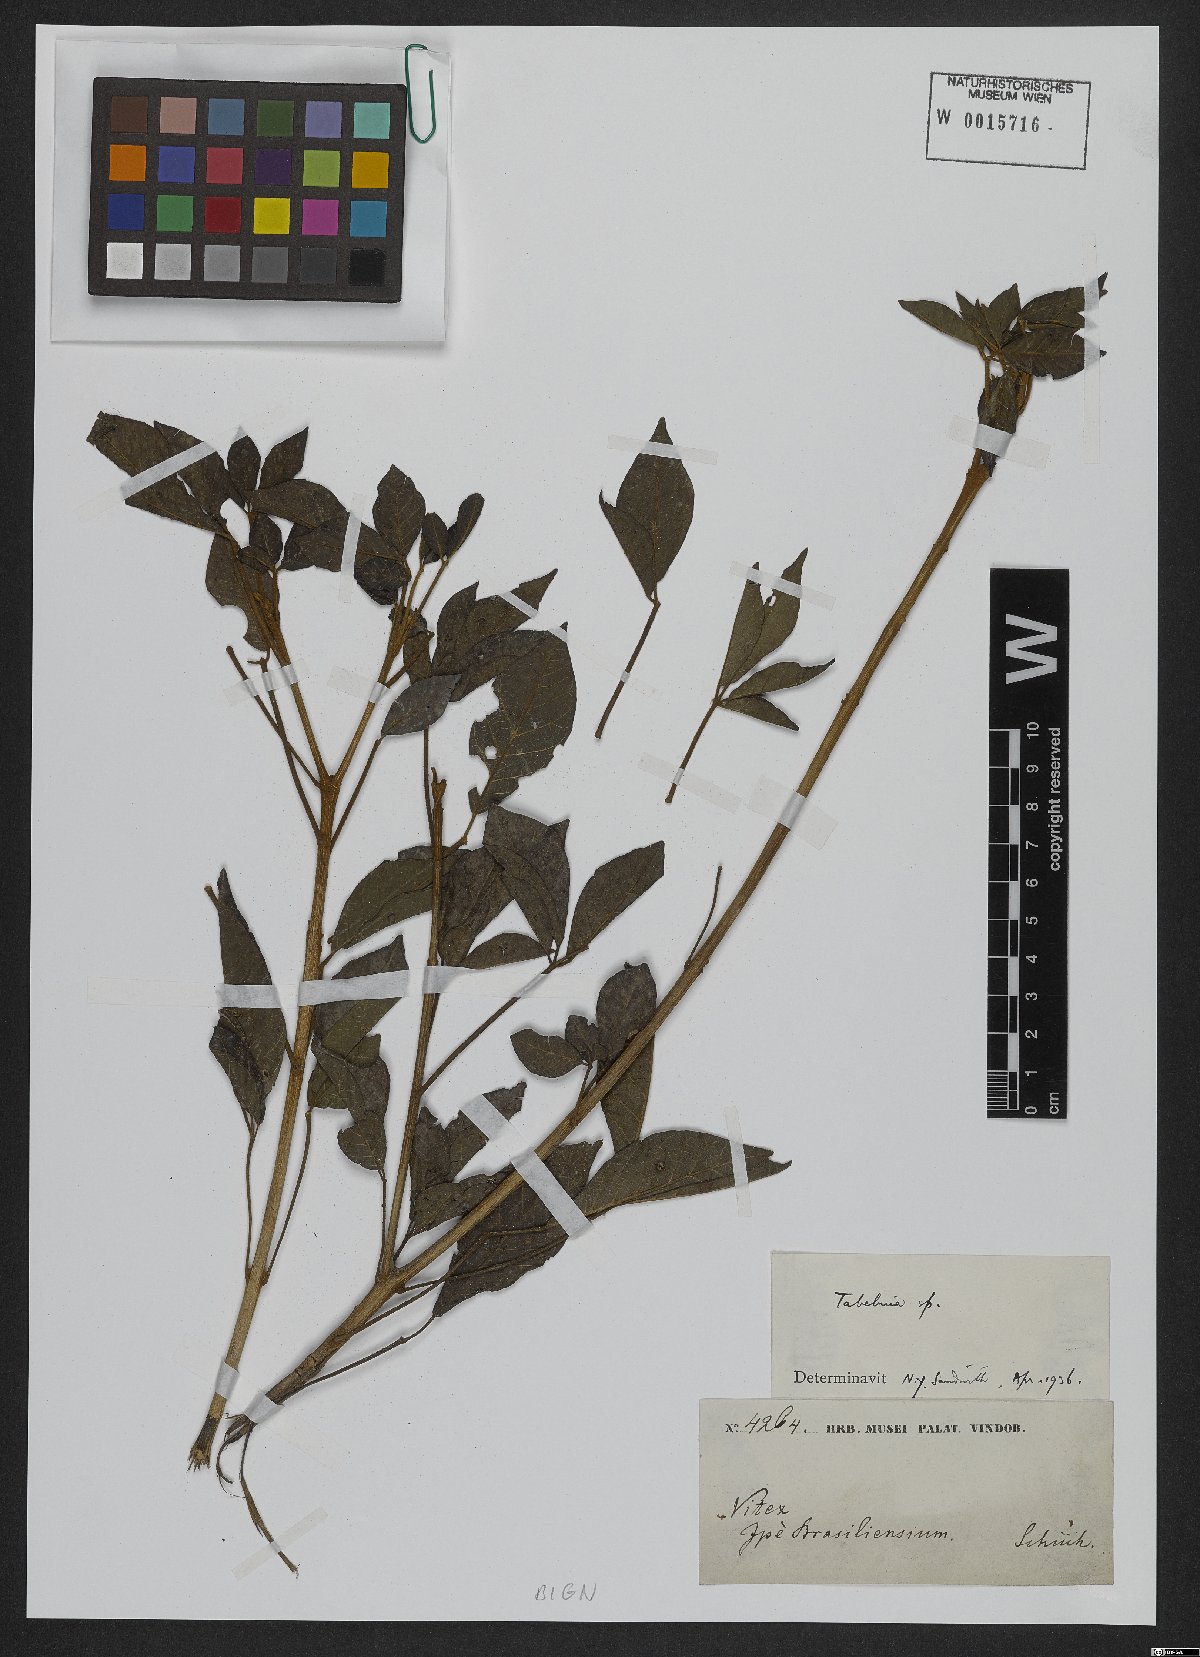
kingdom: Plantae
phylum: Tracheophyta
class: Magnoliopsida
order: Lamiales
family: Bignoniaceae
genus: Tabebuia
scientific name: Tabebuia
